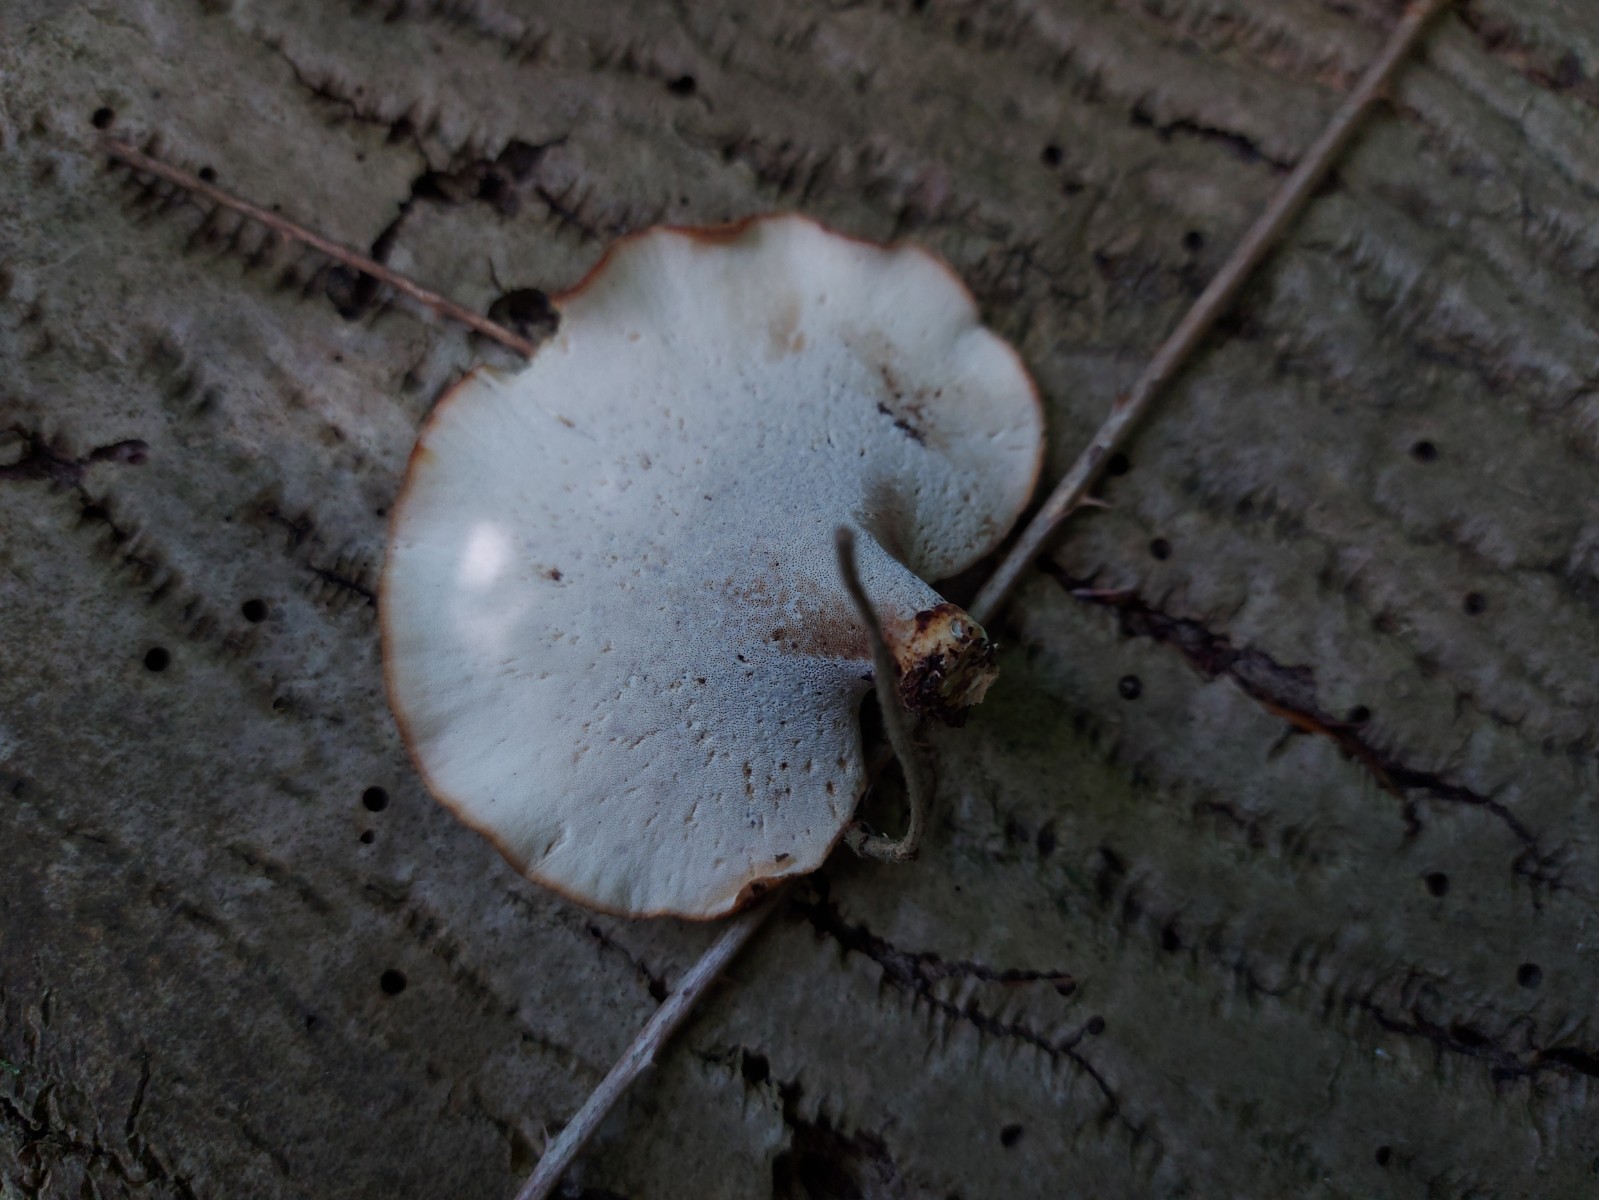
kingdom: Fungi
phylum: Basidiomycota
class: Agaricomycetes
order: Polyporales
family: Polyporaceae
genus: Cerioporus
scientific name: Cerioporus varius
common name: foranderlig stilkporesvamp
